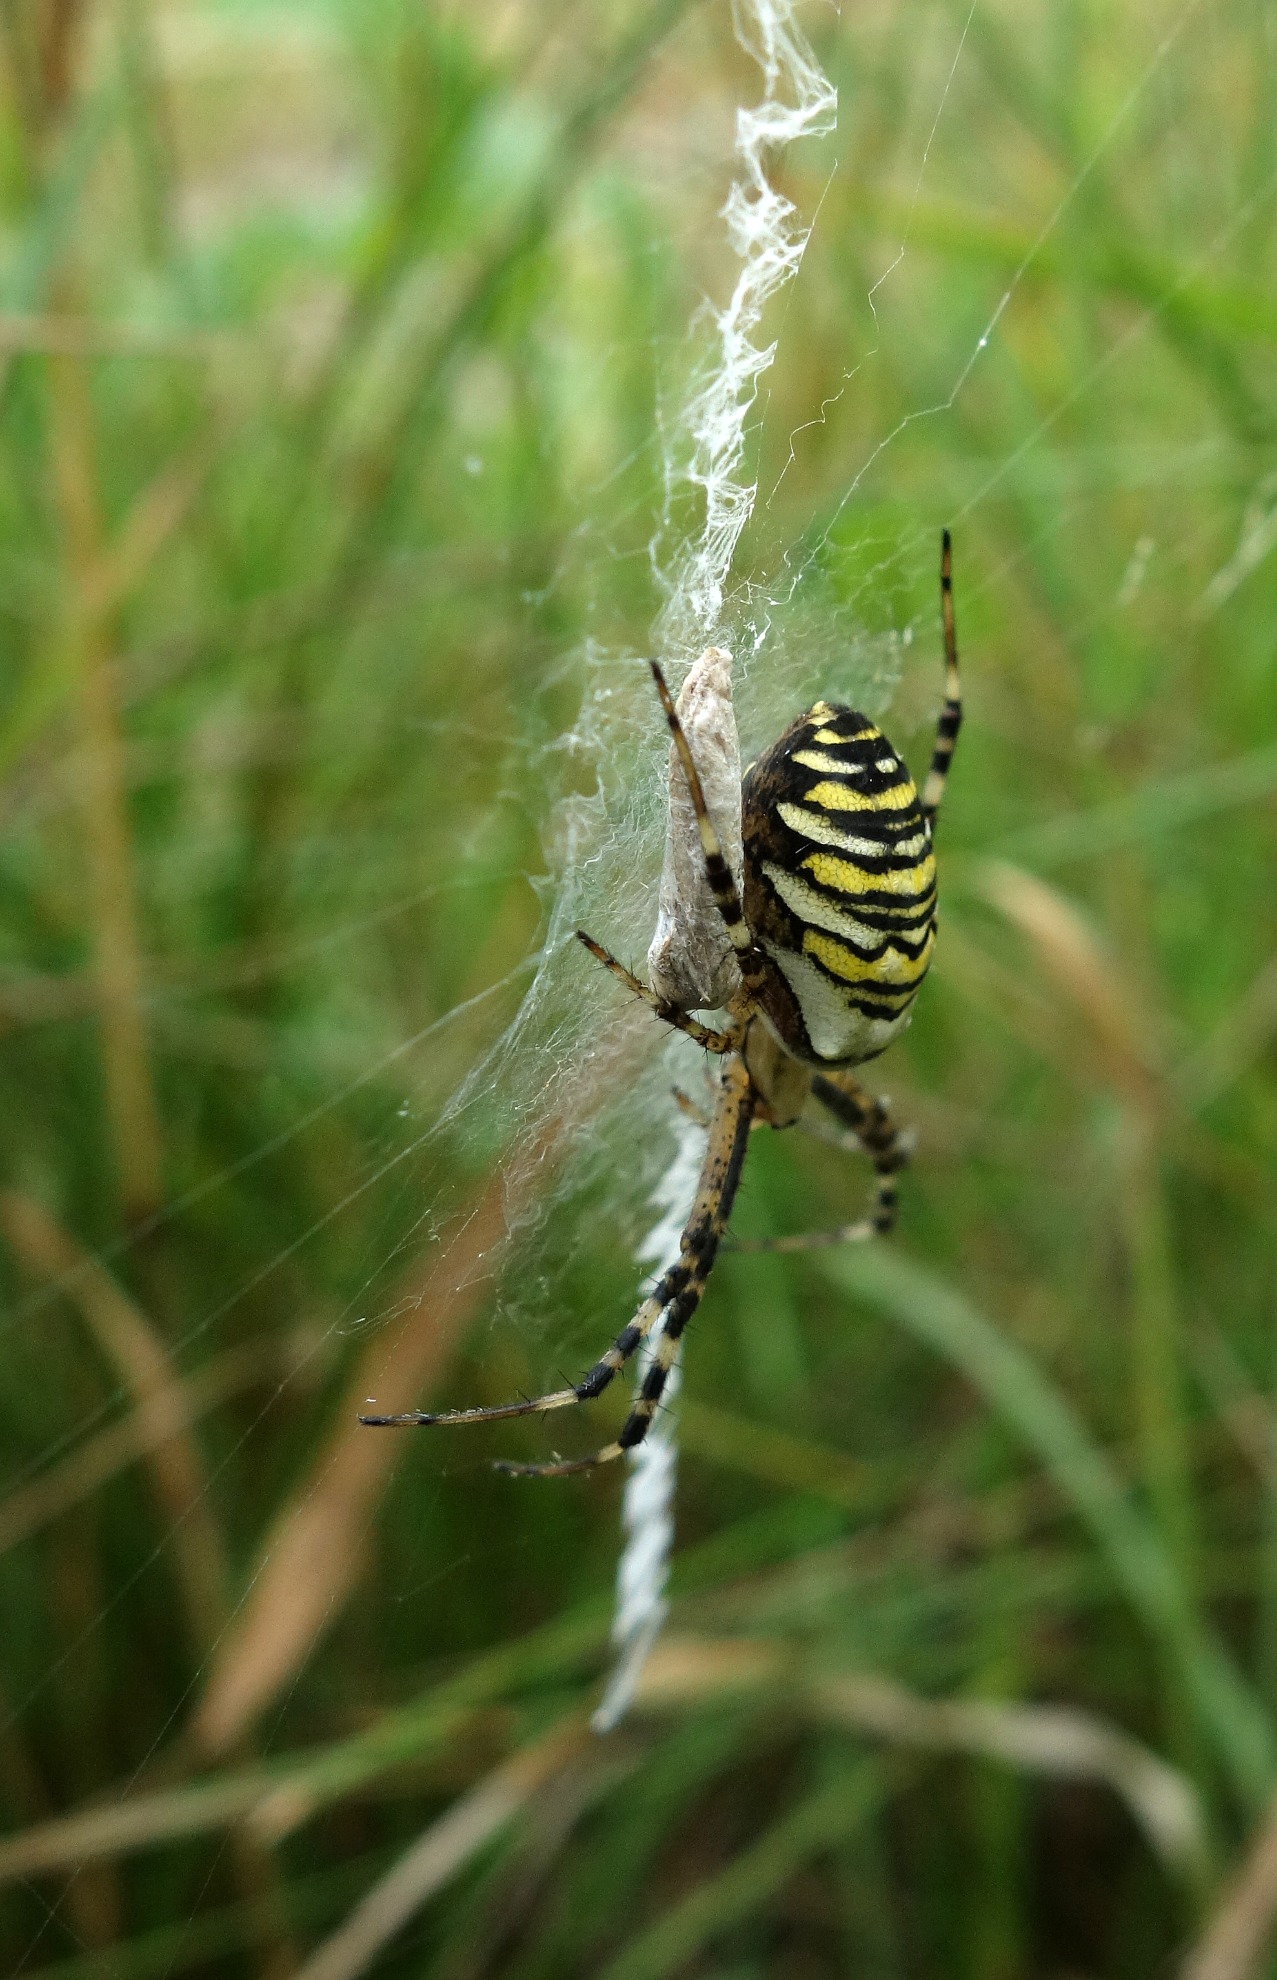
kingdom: Animalia
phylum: Arthropoda
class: Arachnida
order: Araneae
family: Araneidae
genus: Argiope
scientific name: Argiope bruennichi
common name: Hvepseedderkop
